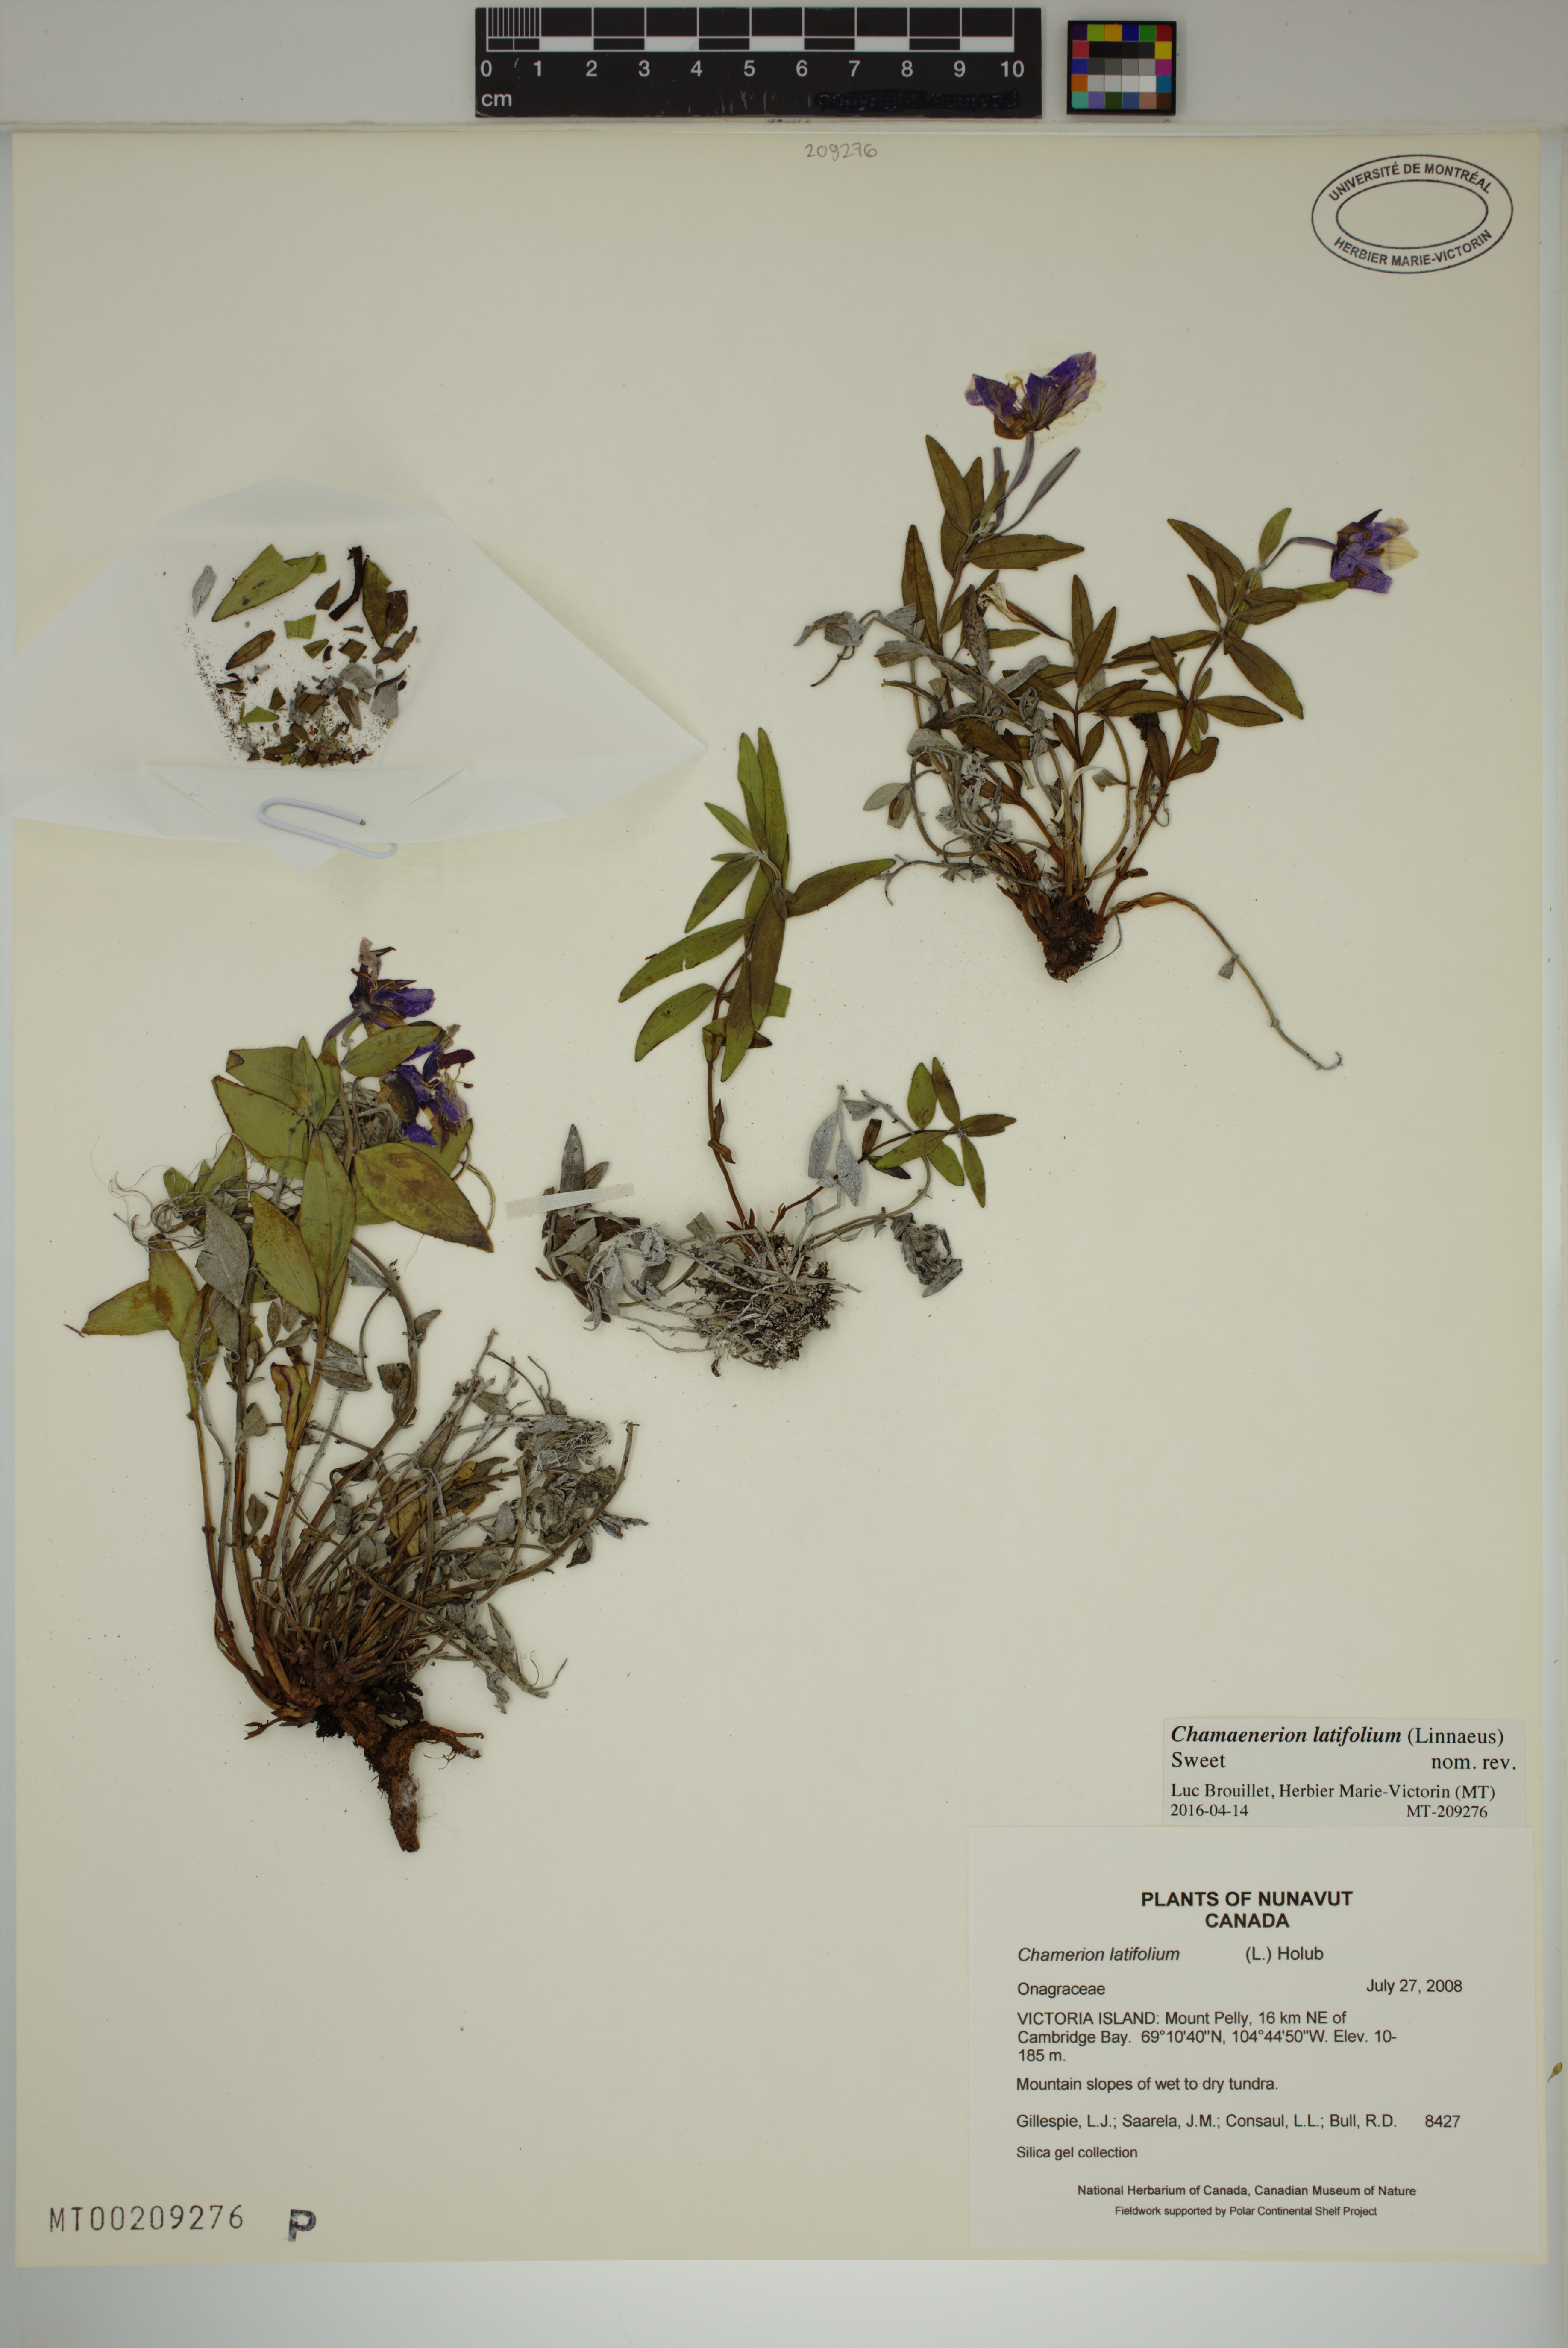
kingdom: Plantae
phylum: Tracheophyta
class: Magnoliopsida
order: Myrtales
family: Onagraceae
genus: Chamaenerion
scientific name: Chamaenerion latifolium
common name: Dwarf fireweed
